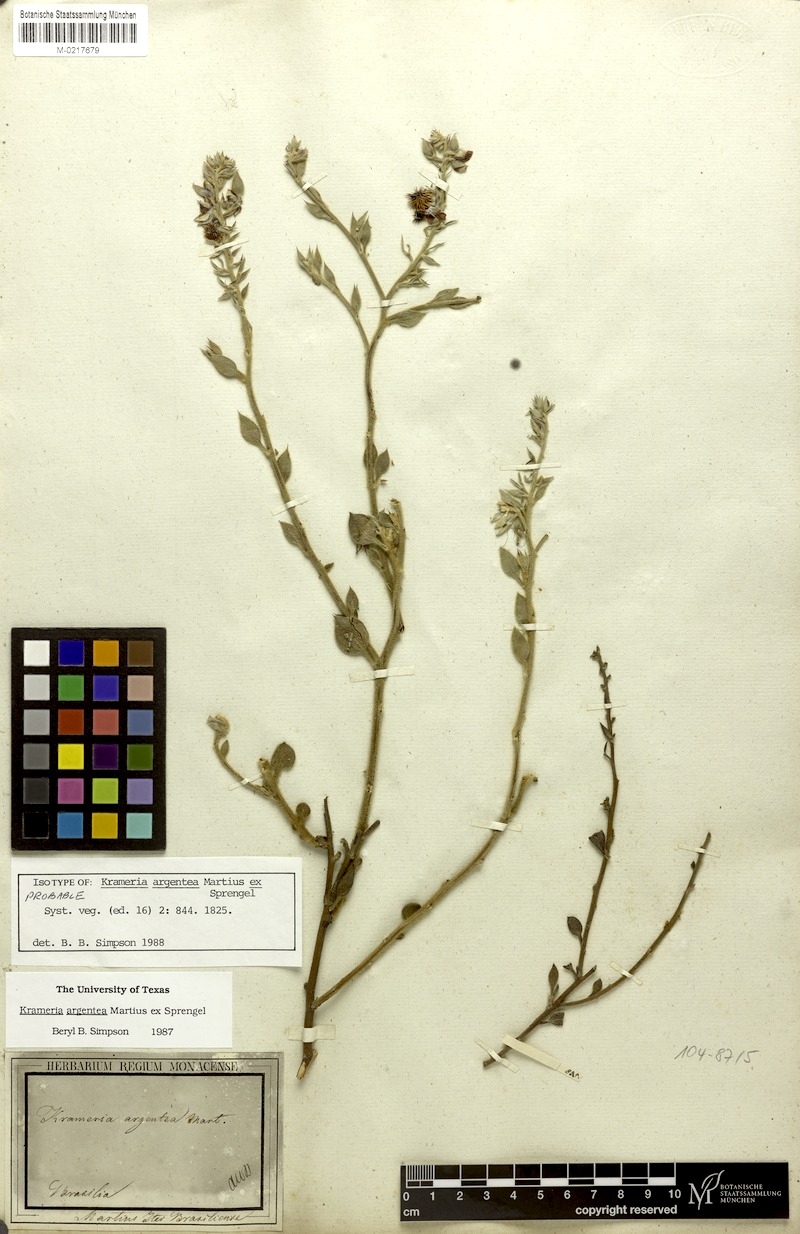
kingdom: Plantae
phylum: Tracheophyta
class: Magnoliopsida
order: Zygophyllales
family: Krameriaceae
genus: Krameria
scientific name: Krameria argentea
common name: Brown-rhatany,-ceará-rhatany
